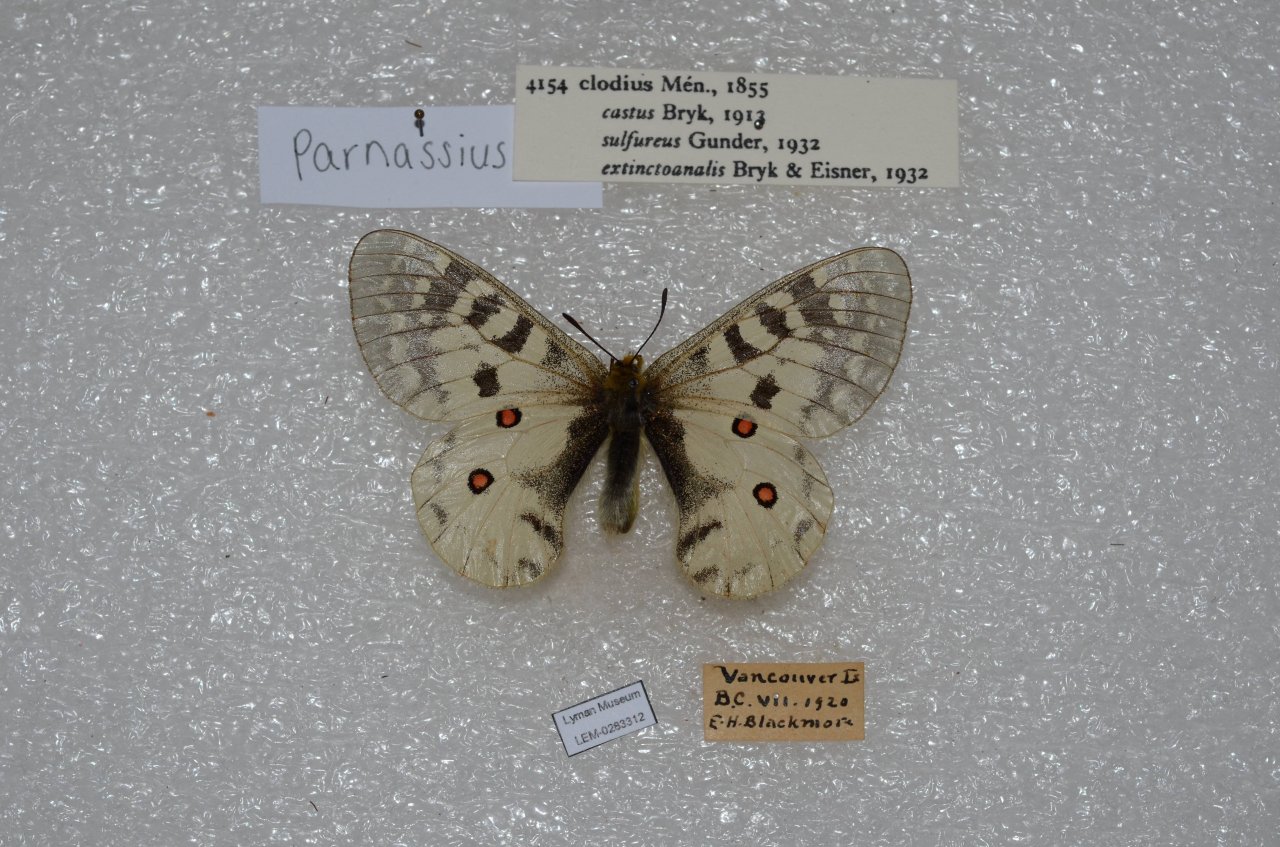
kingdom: Animalia
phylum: Arthropoda
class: Insecta
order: Lepidoptera
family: Papilionidae
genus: Parnassius
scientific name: Parnassius clodius
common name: Clodius Parnassian
